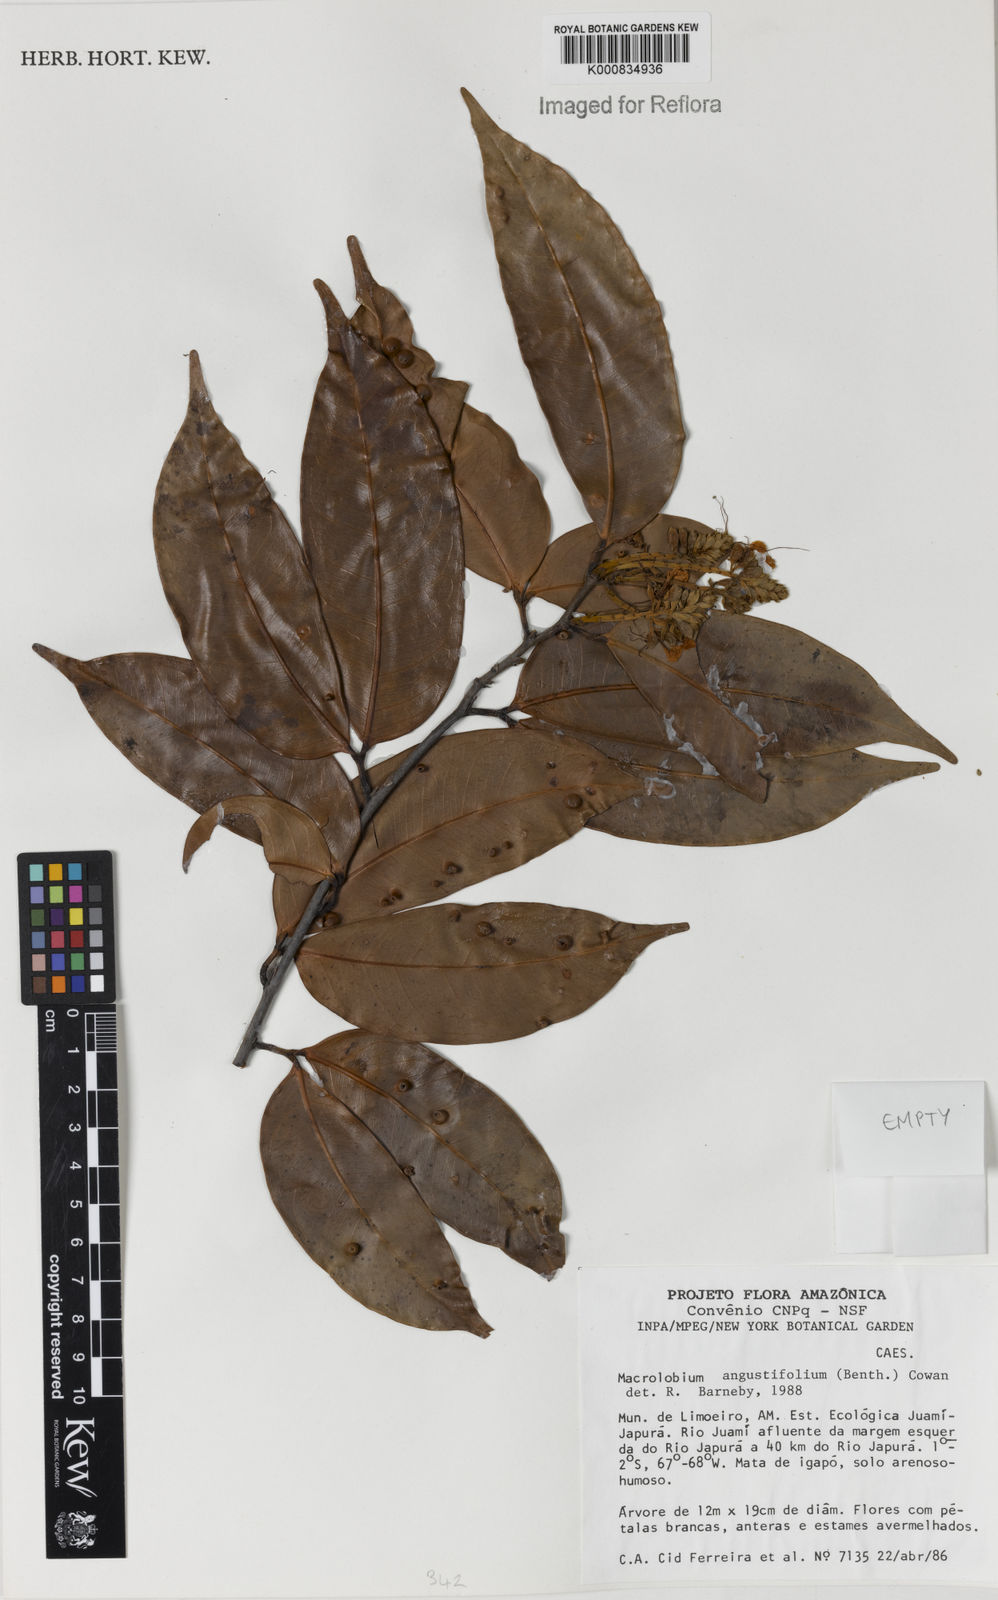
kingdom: Plantae
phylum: Tracheophyta
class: Magnoliopsida
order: Fabales
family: Fabaceae
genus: Macrolobium
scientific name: Macrolobium angustifolium
